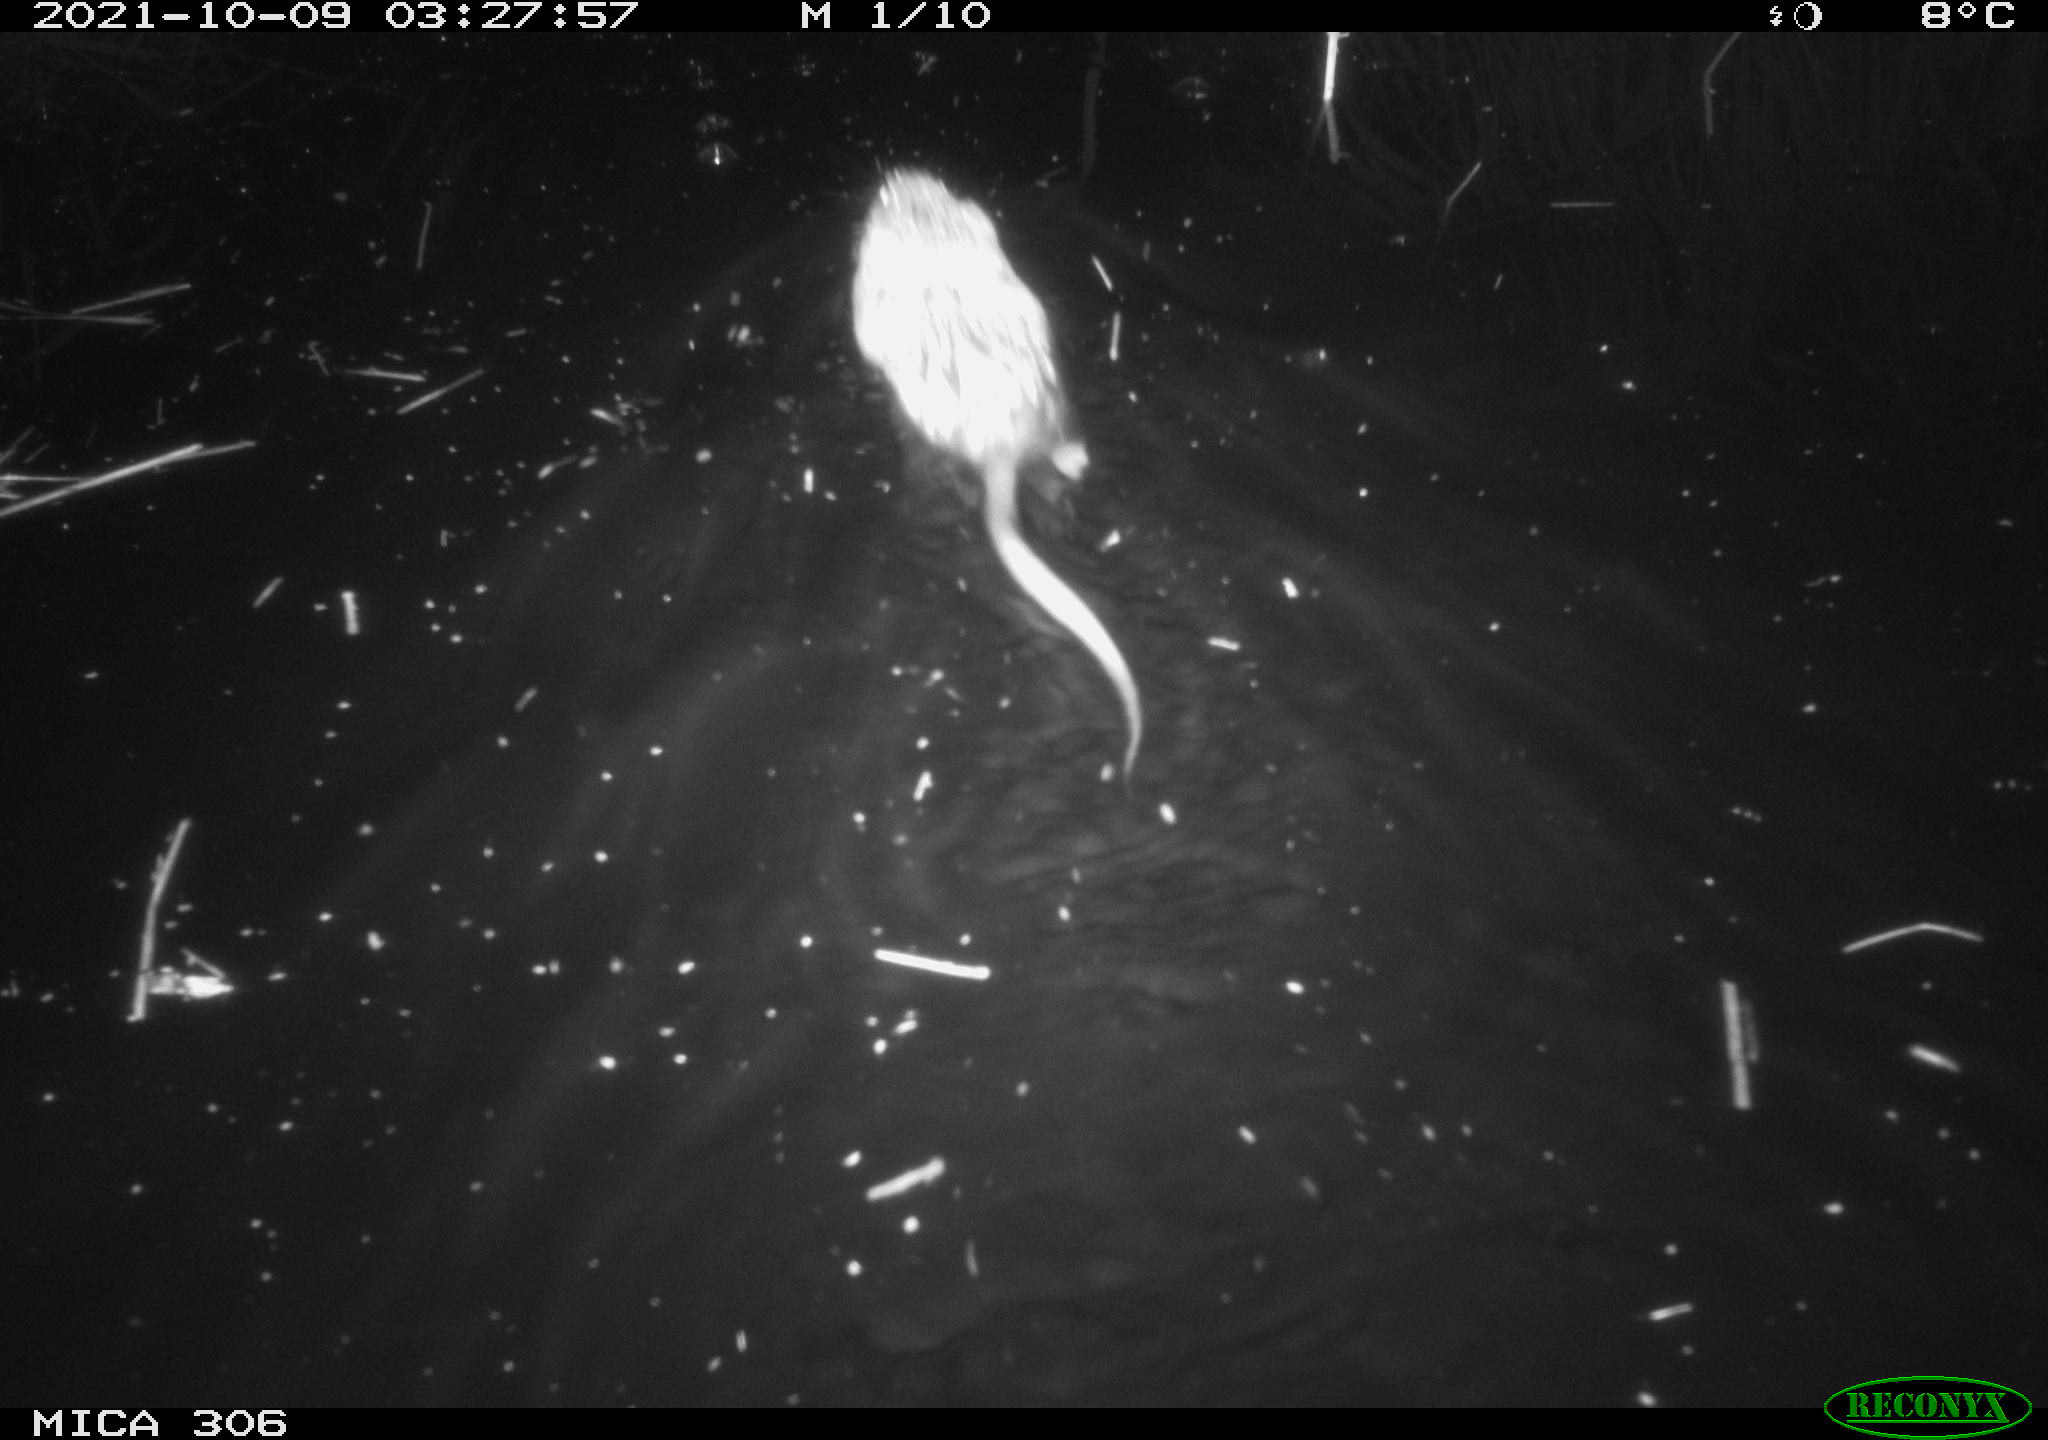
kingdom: Animalia
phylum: Chordata
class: Mammalia
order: Rodentia
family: Cricetidae
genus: Ondatra
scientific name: Ondatra zibethicus
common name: Muskrat
